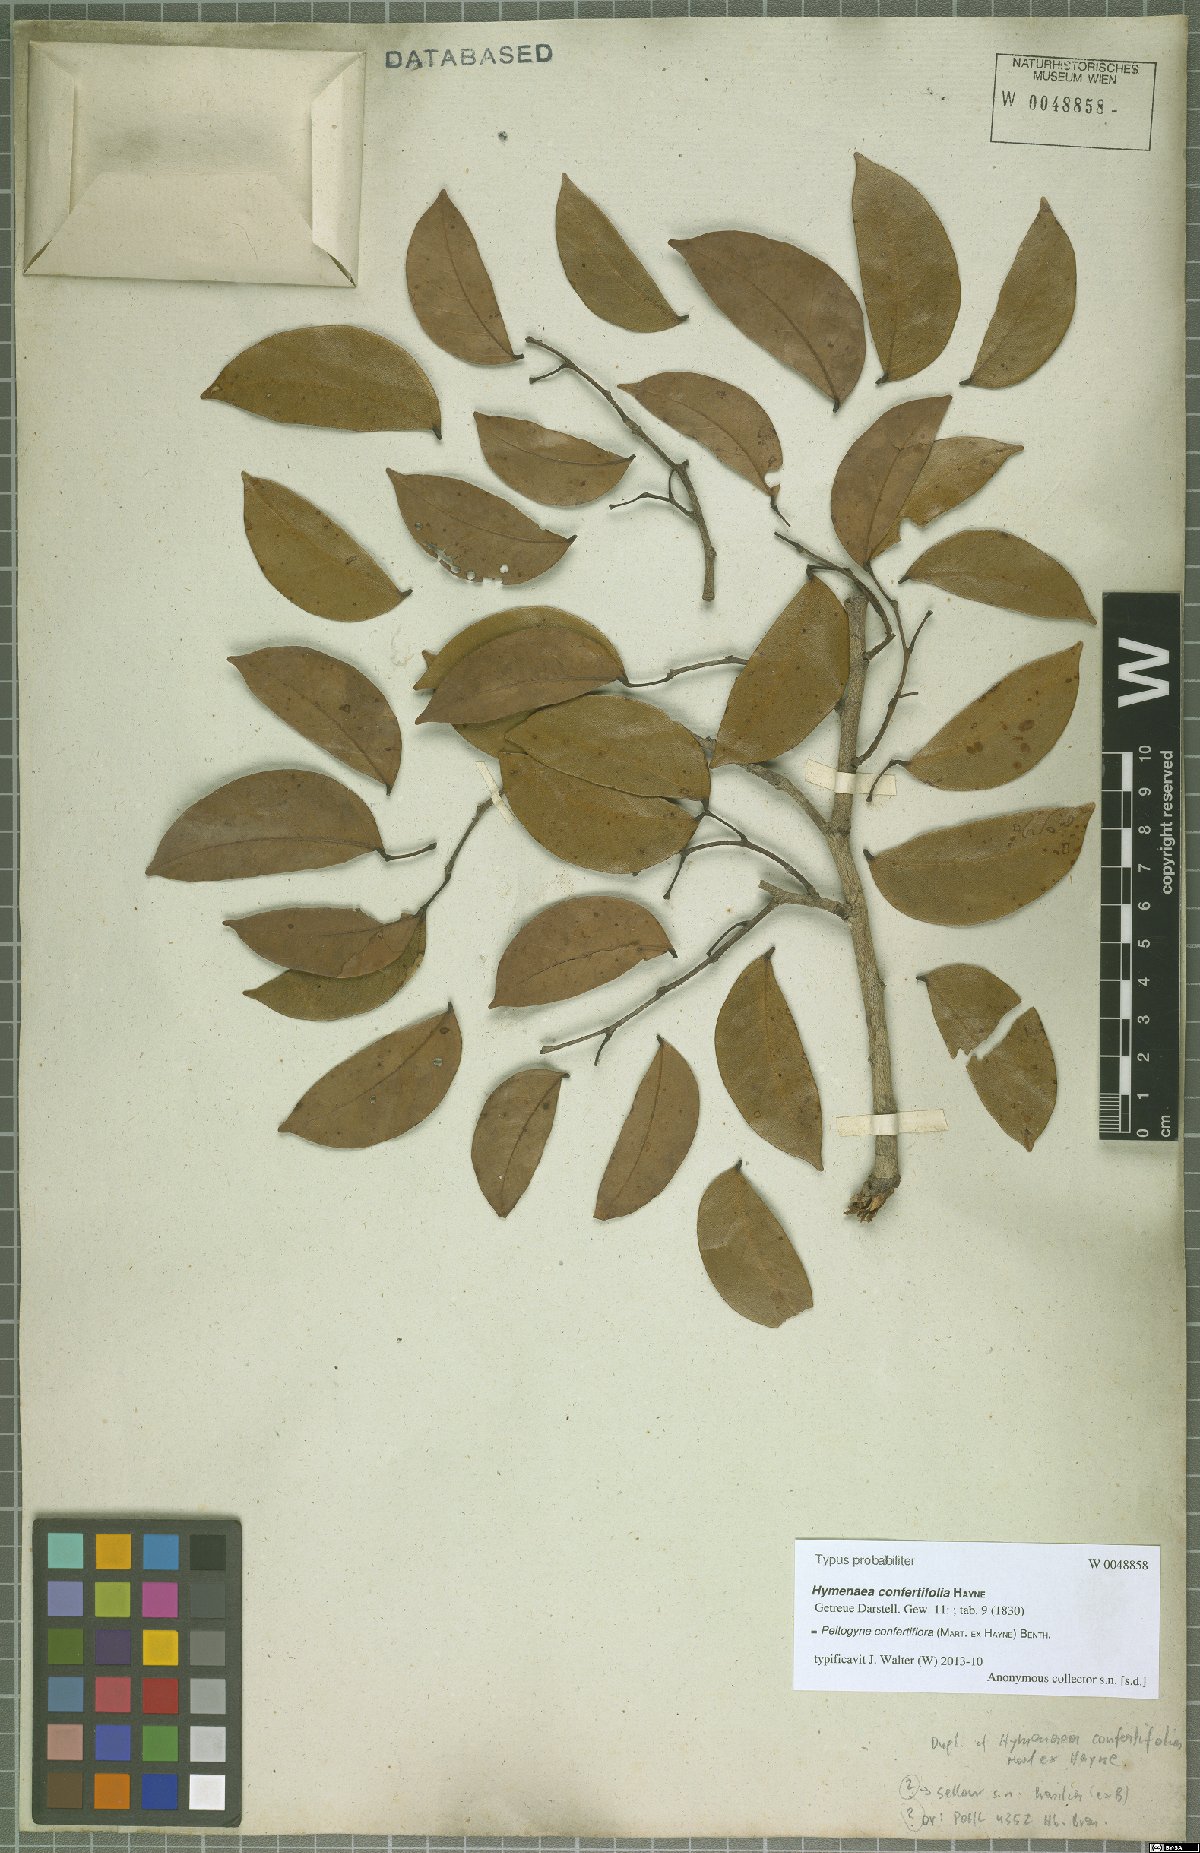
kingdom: Plantae
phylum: Tracheophyta
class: Magnoliopsida
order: Fabales
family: Fabaceae
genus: Peltogyne
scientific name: Peltogyne confertiflora
